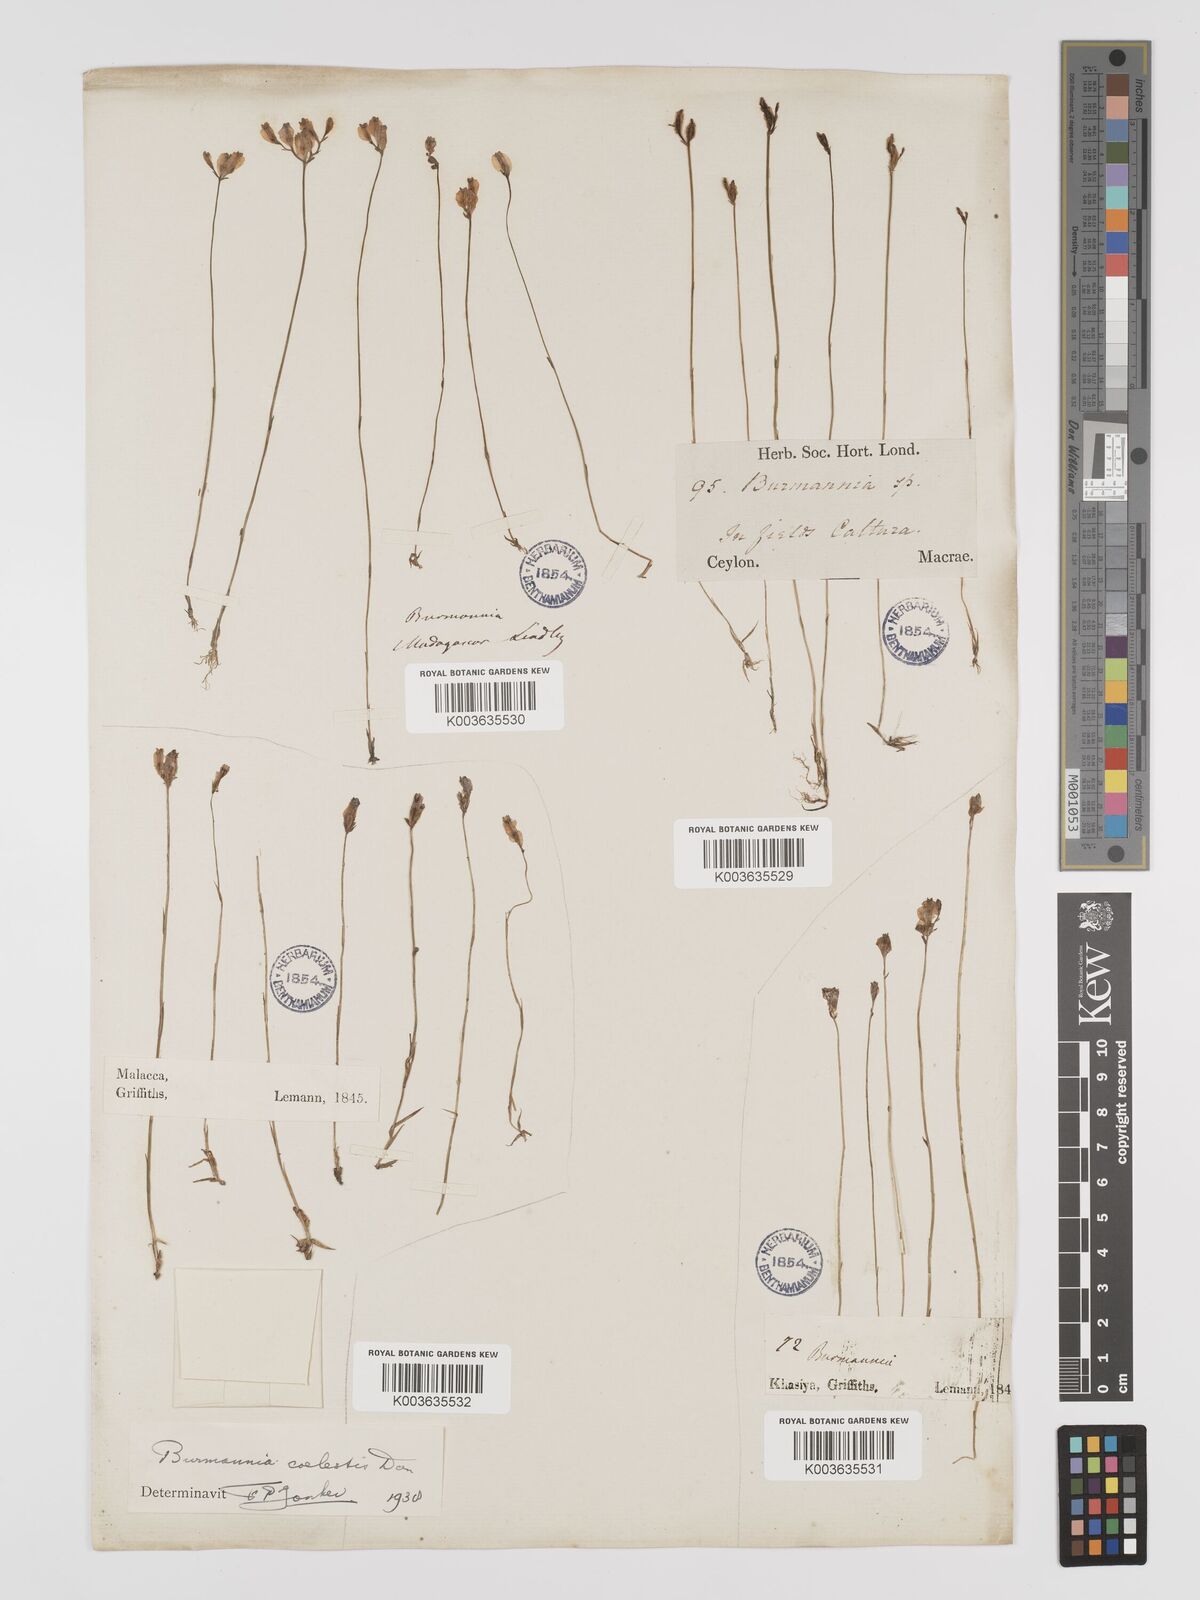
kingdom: Plantae
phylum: Tracheophyta
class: Liliopsida
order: Dioscoreales
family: Burmanniaceae
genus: Burmannia
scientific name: Burmannia coelestis
